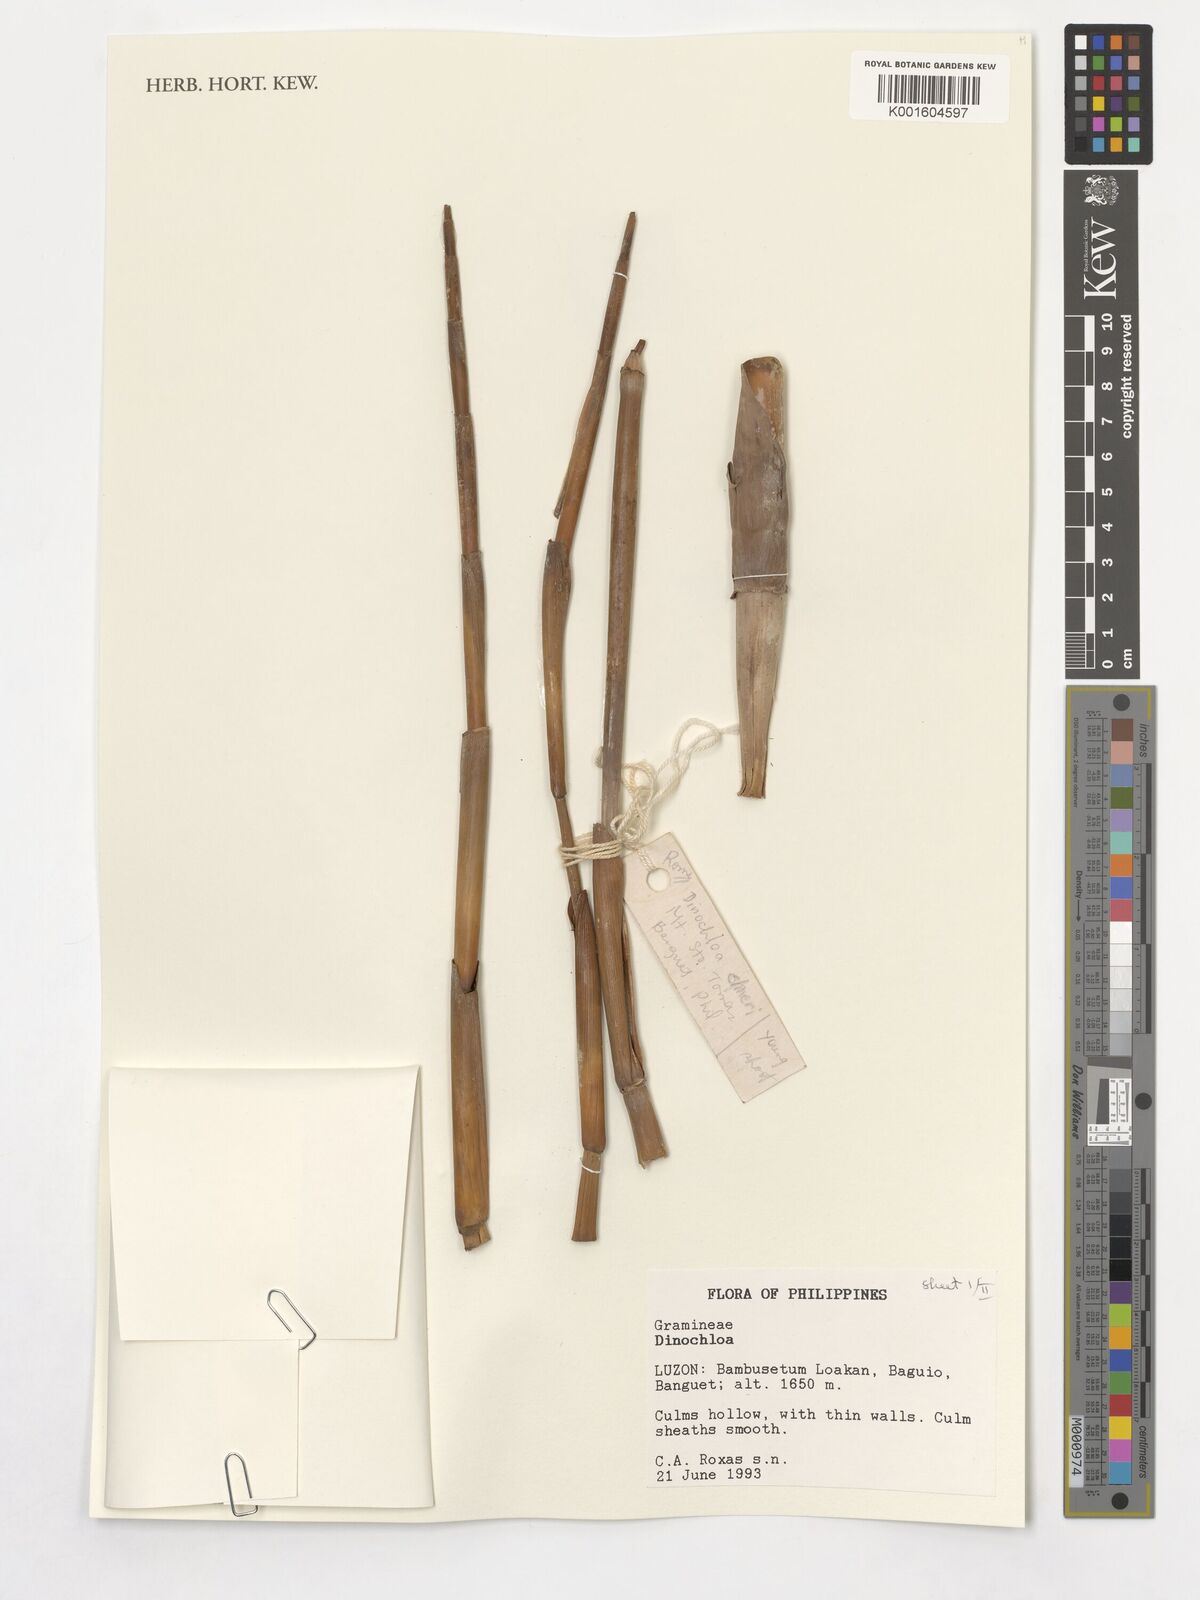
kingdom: Plantae
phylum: Tracheophyta
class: Liliopsida
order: Poales
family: Poaceae
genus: Dinochloa
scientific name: Dinochloa
